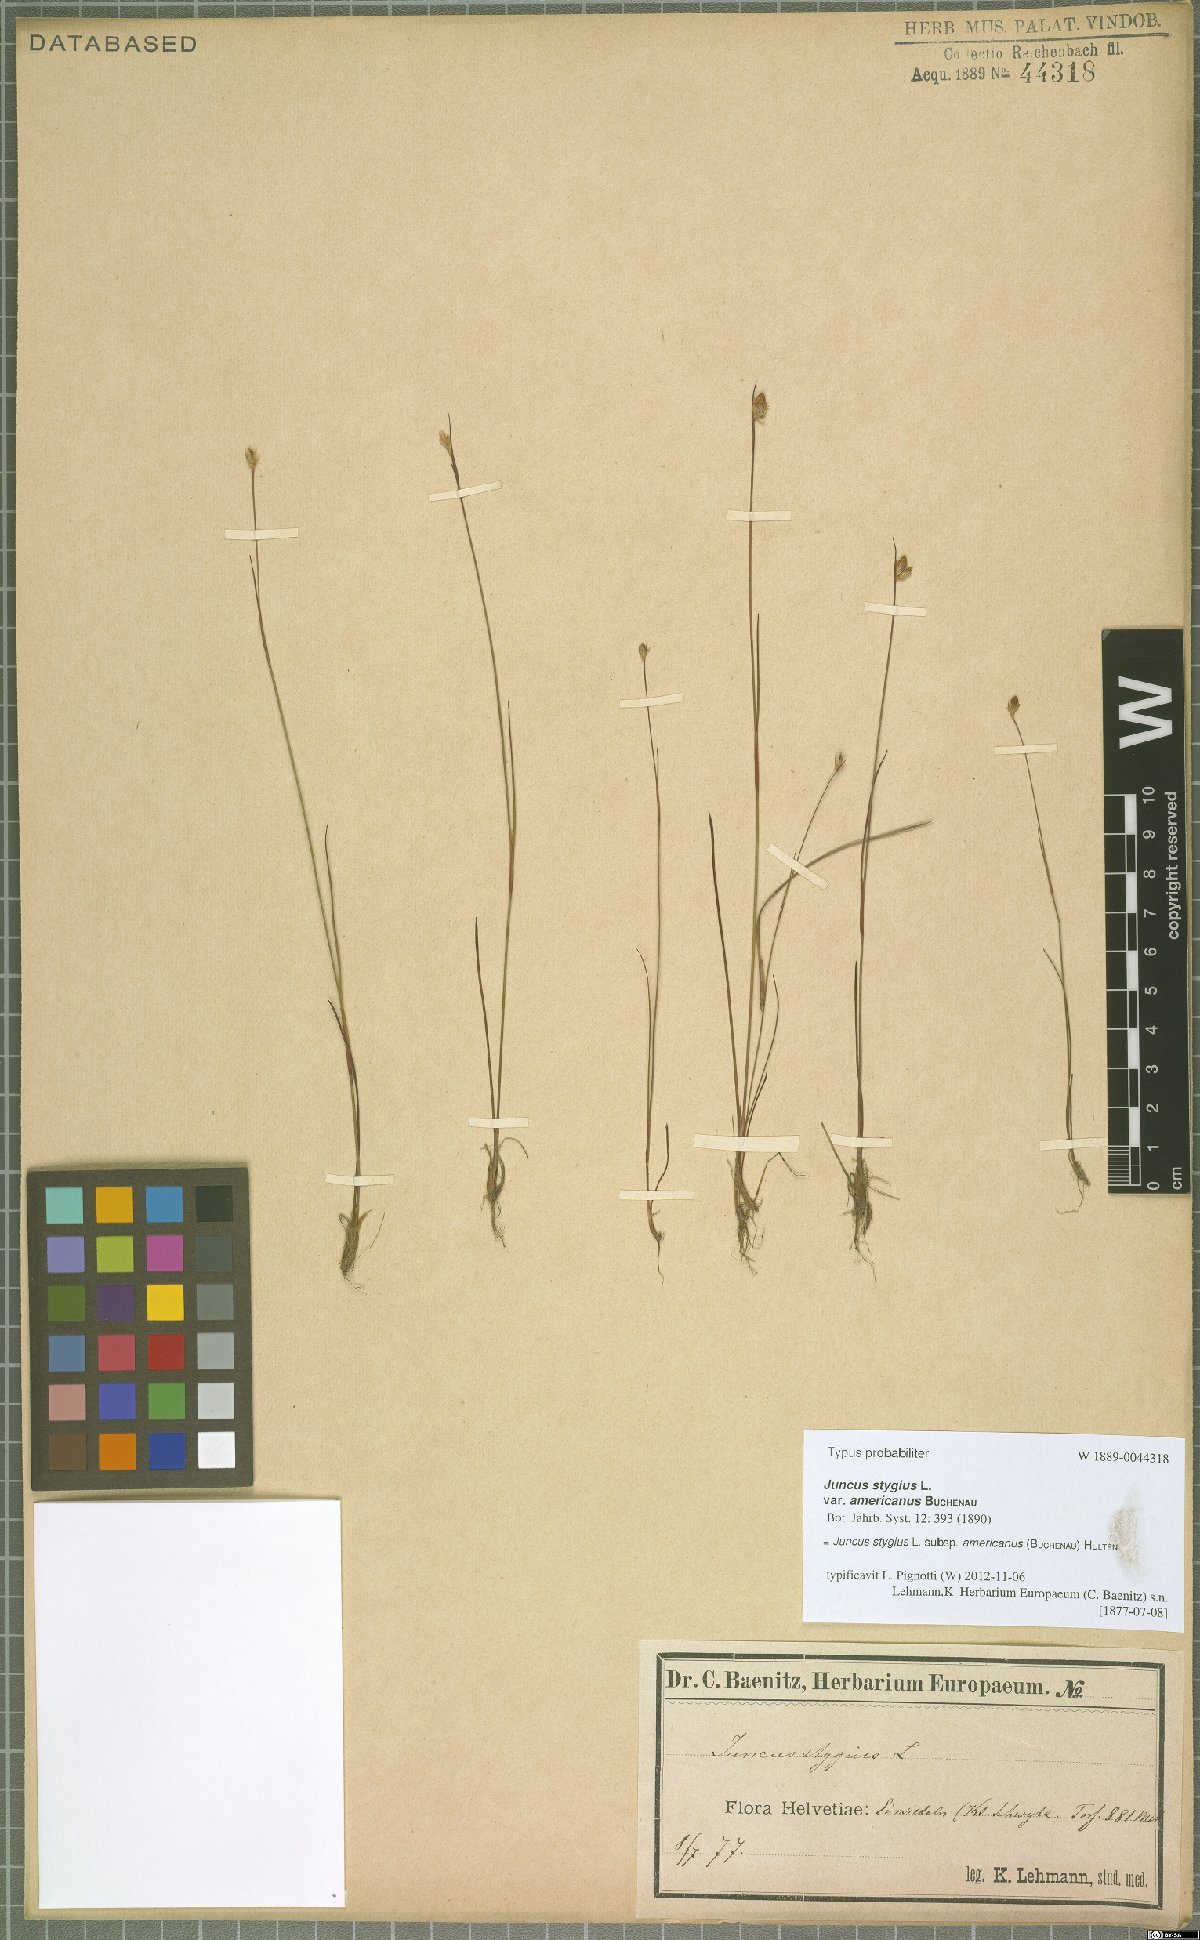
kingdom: Plantae
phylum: Tracheophyta
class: Liliopsida
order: Poales
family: Juncaceae
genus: Juncus
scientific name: Juncus stygius
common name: Bog rush
